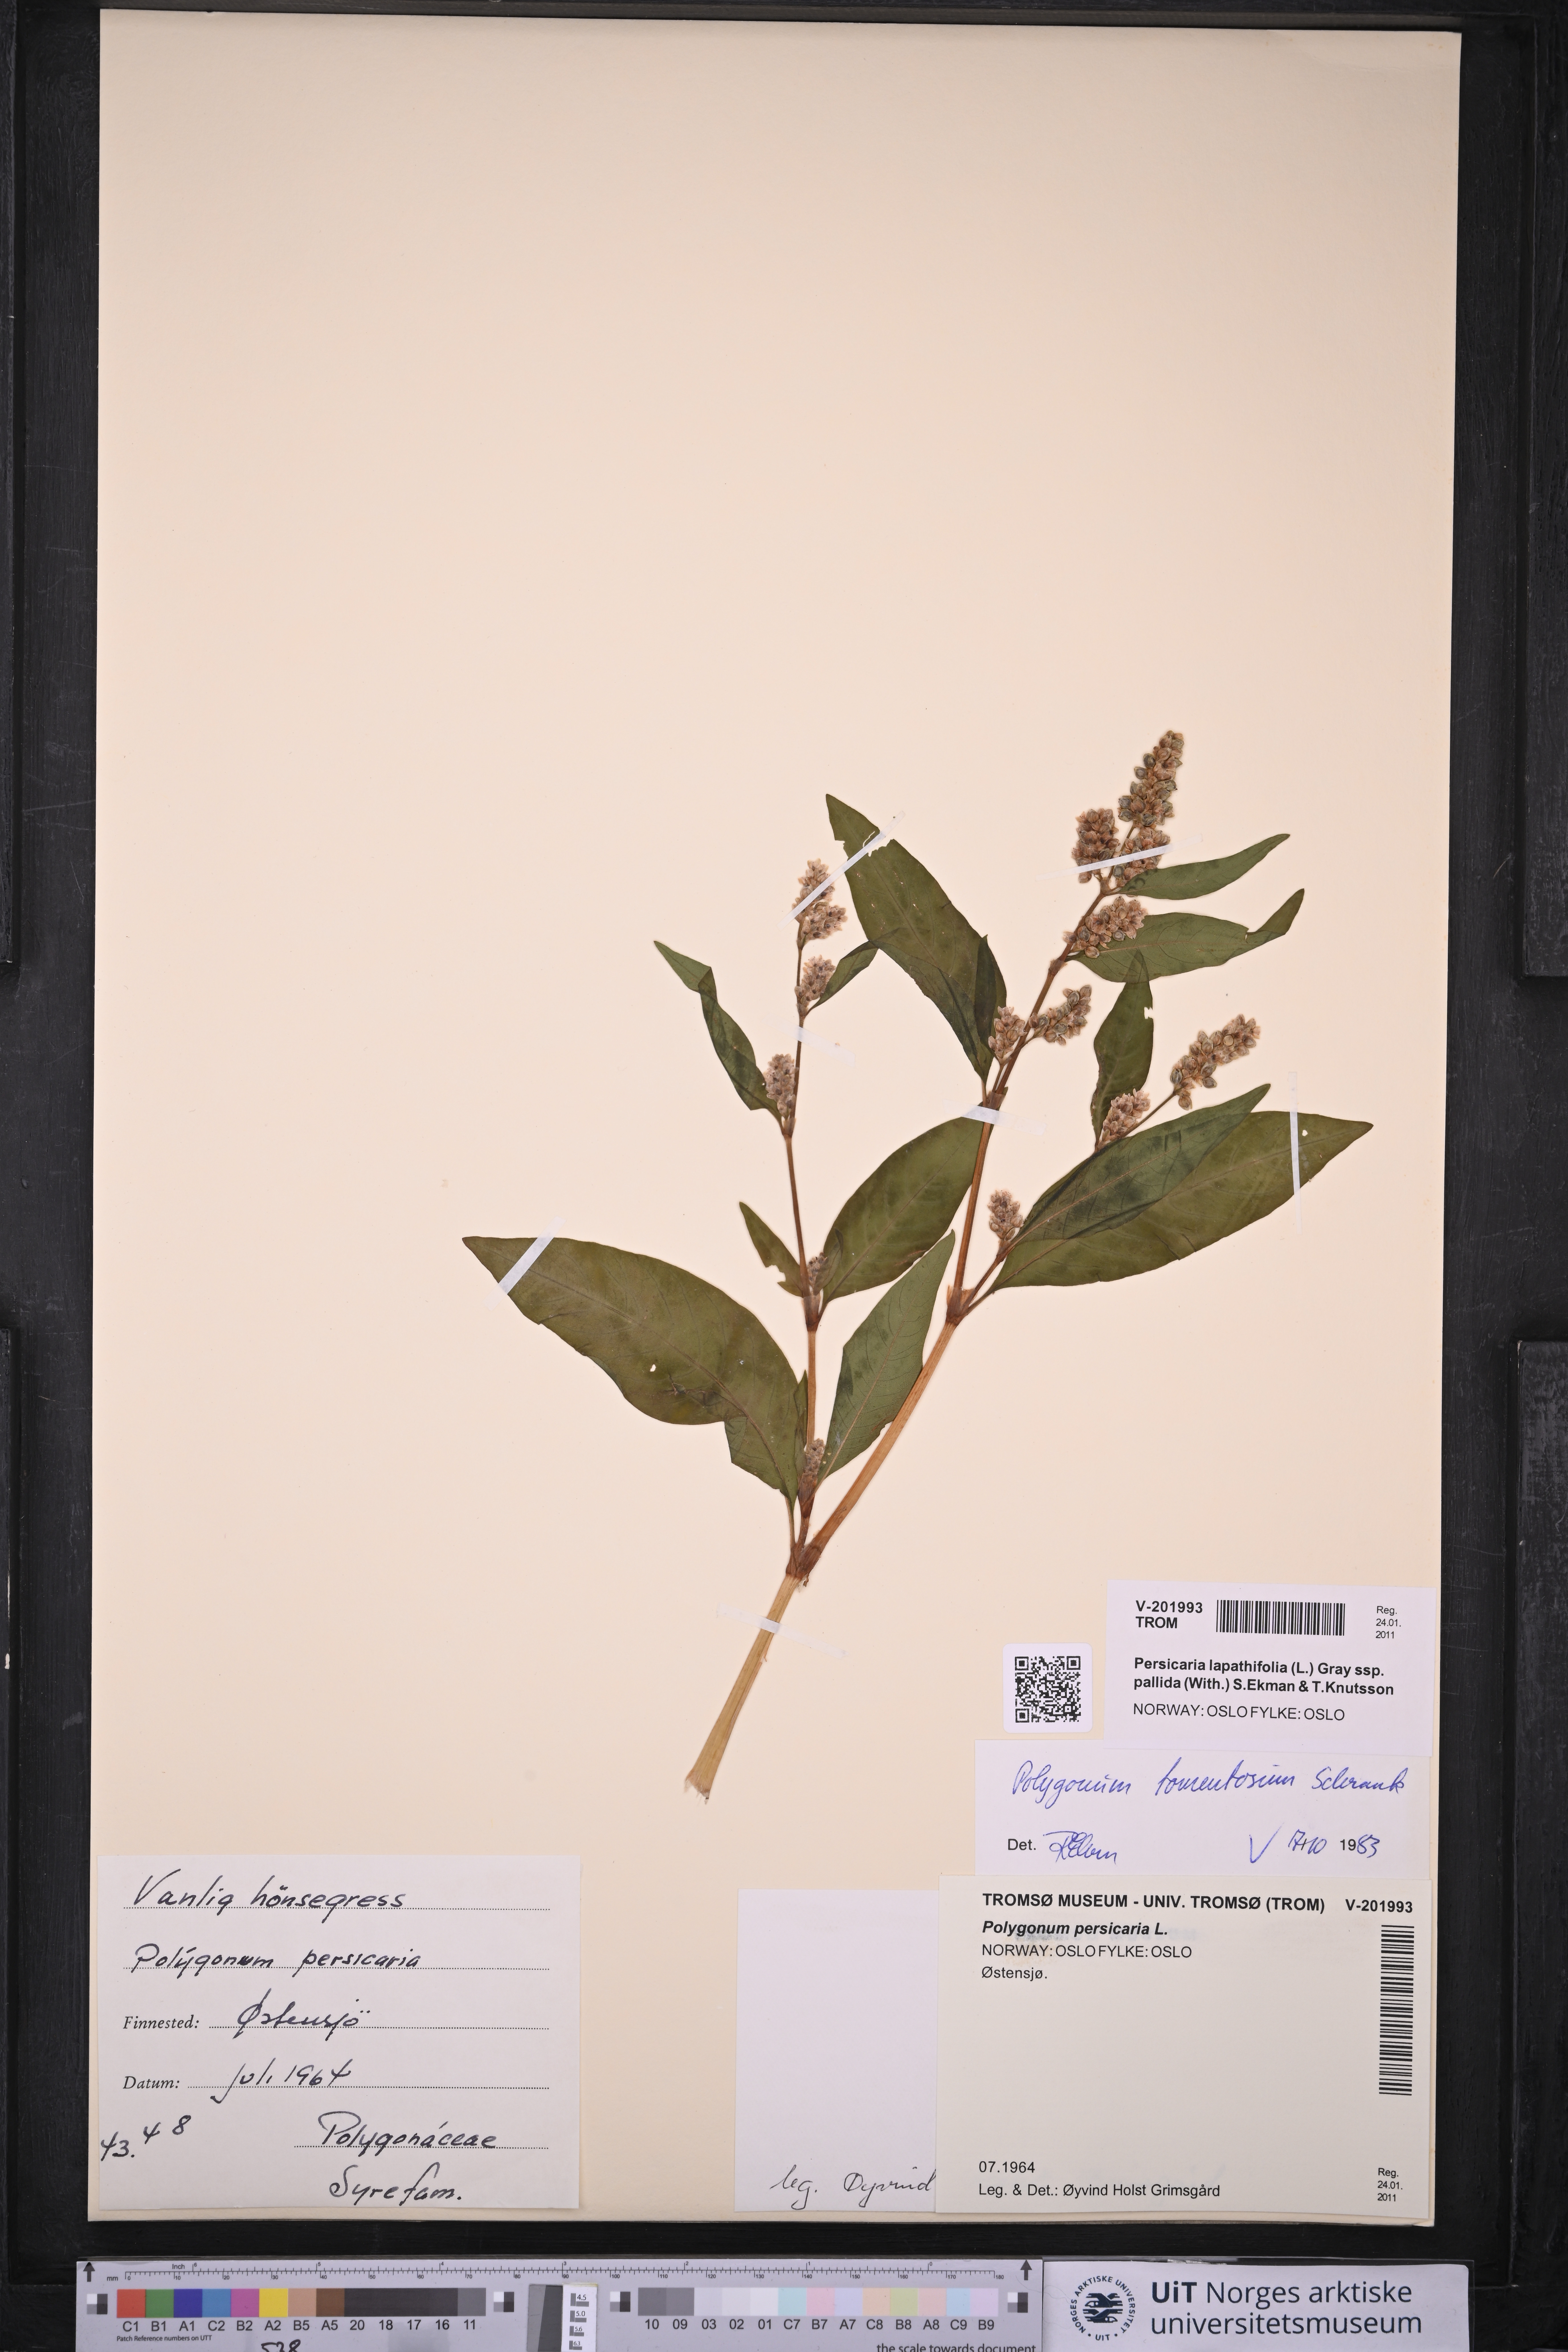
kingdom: Plantae
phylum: Tracheophyta
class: Magnoliopsida
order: Caryophyllales
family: Polygonaceae
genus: Persicaria
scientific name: Persicaria lapathifolia
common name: Curlytop knotweed
